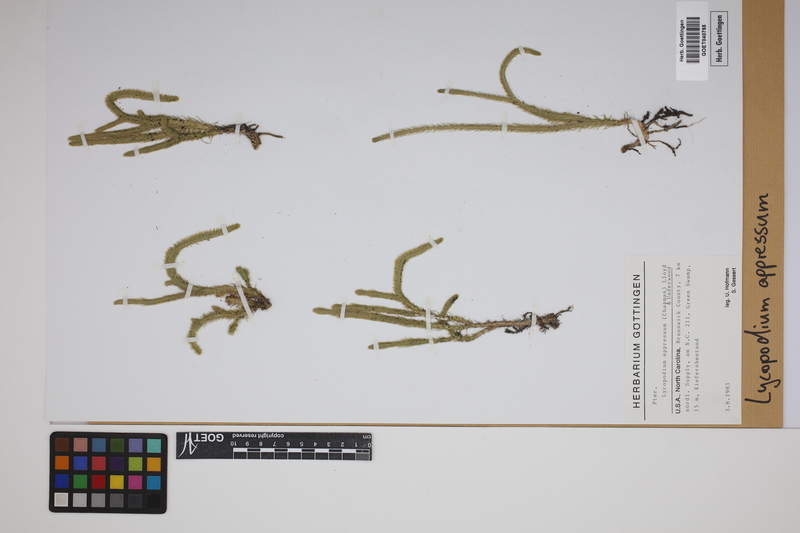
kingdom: Plantae
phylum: Tracheophyta
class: Lycopodiopsida
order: Lycopodiales
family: Lycopodiaceae
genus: Lycopodiella
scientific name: Lycopodiella appressa
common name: Appressed bog clubmoss
